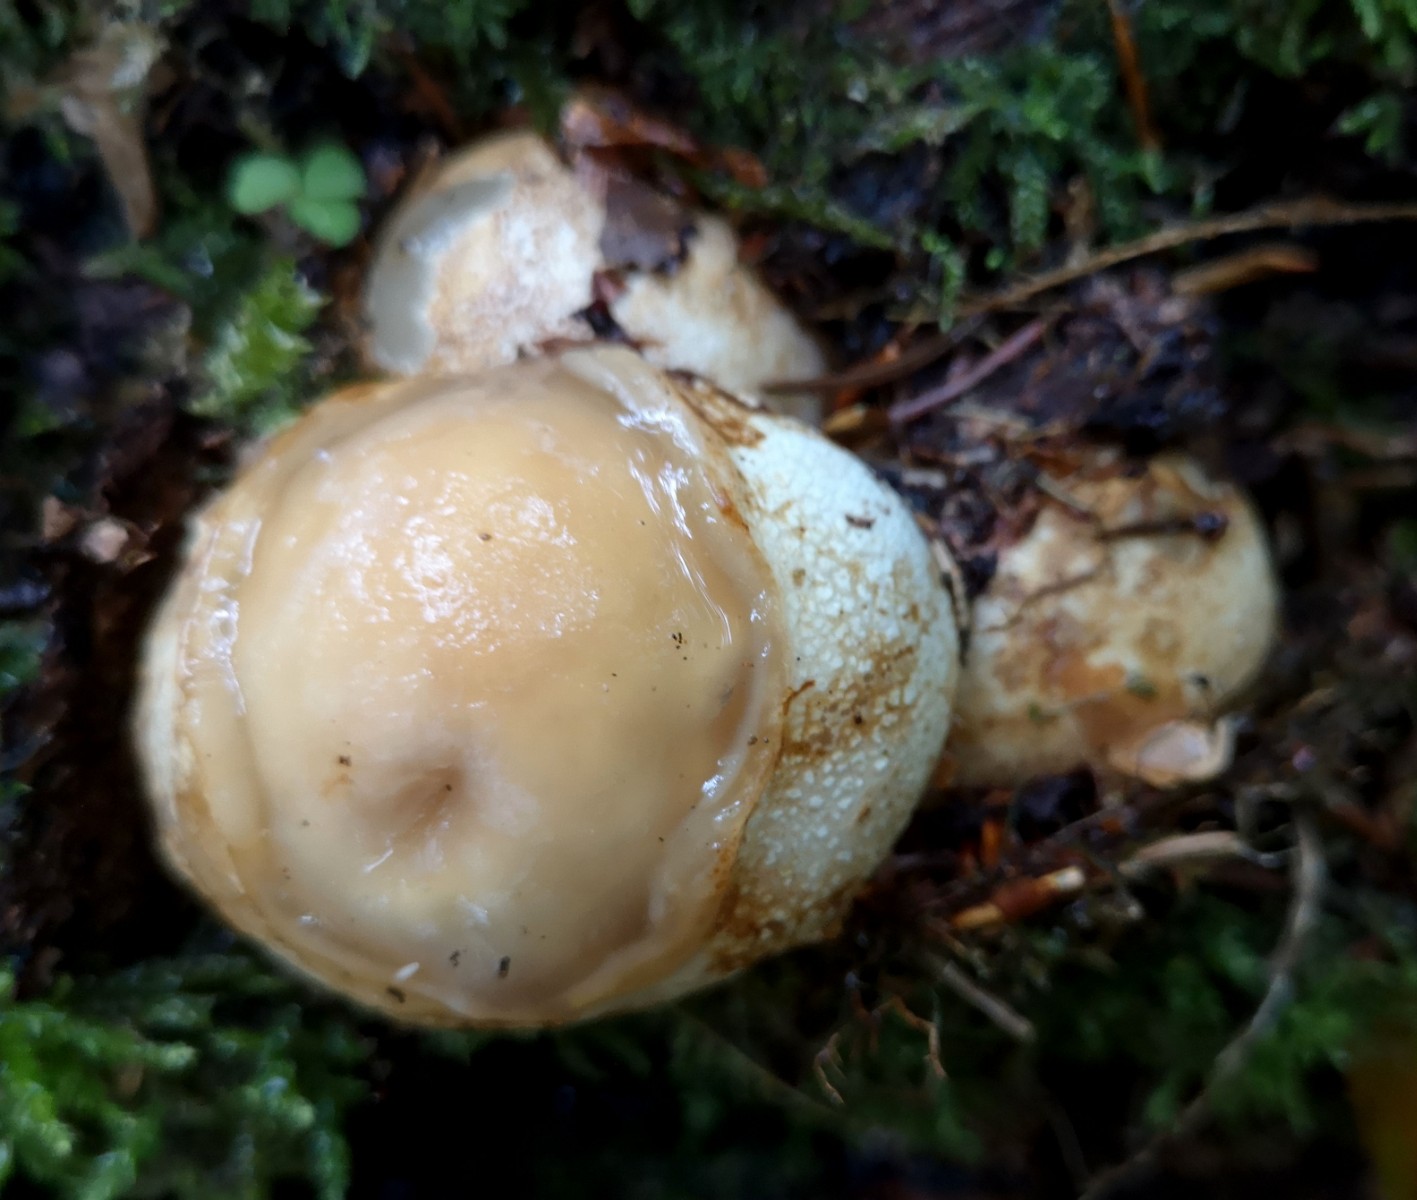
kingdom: Fungi
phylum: Basidiomycota
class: Agaricomycetes
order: Phallales
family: Phallaceae
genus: Phallus
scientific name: Phallus impudicus
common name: almindelig stinksvamp
